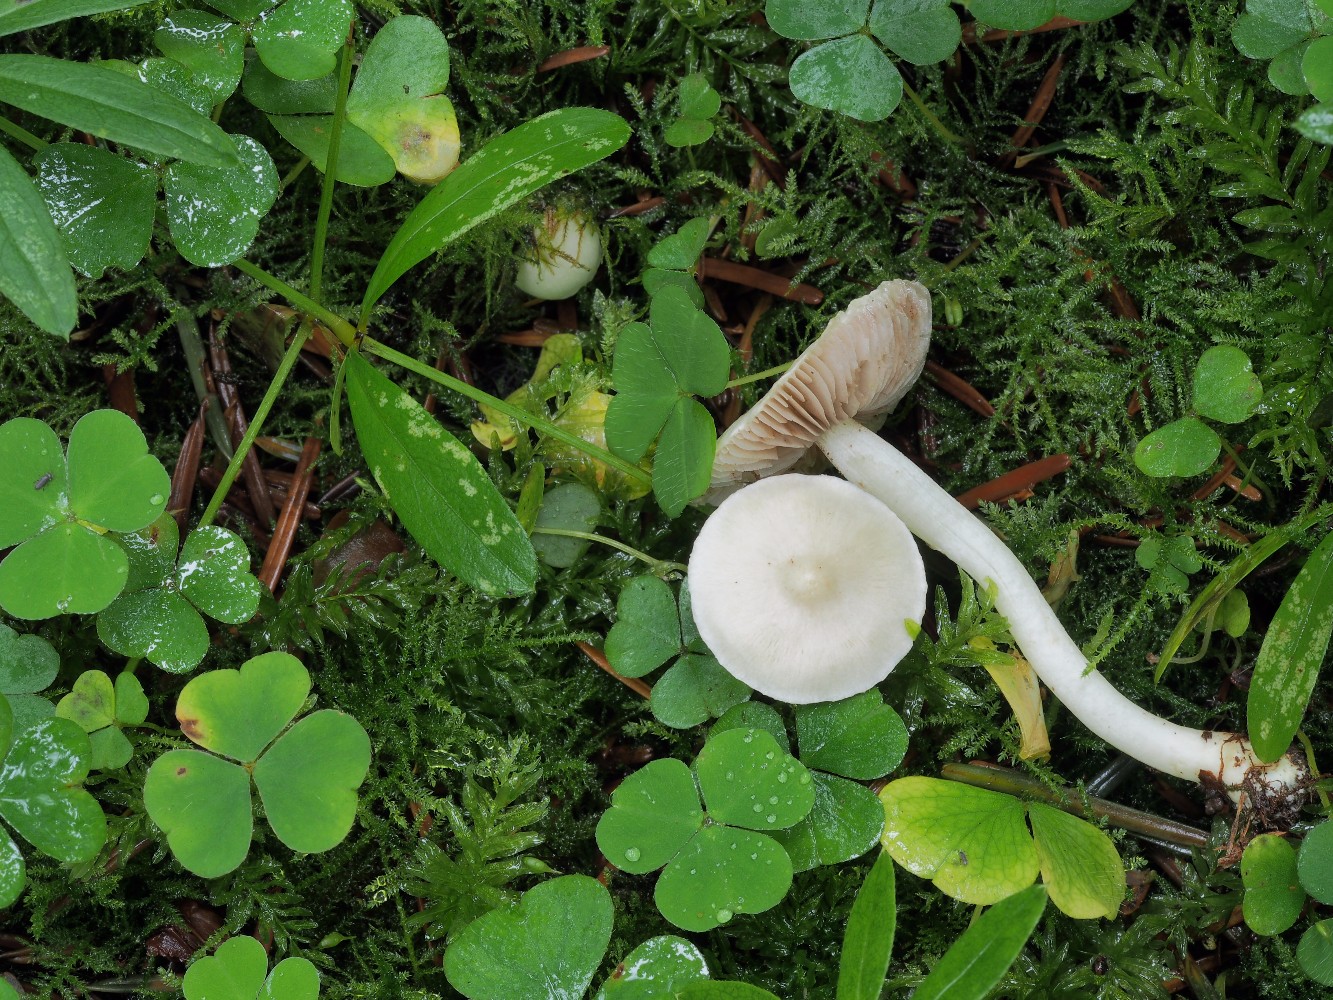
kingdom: Fungi
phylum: Basidiomycota
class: Agaricomycetes
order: Agaricales
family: Inocybaceae
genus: Inocybe
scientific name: Inocybe
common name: almindelig trævlhat
